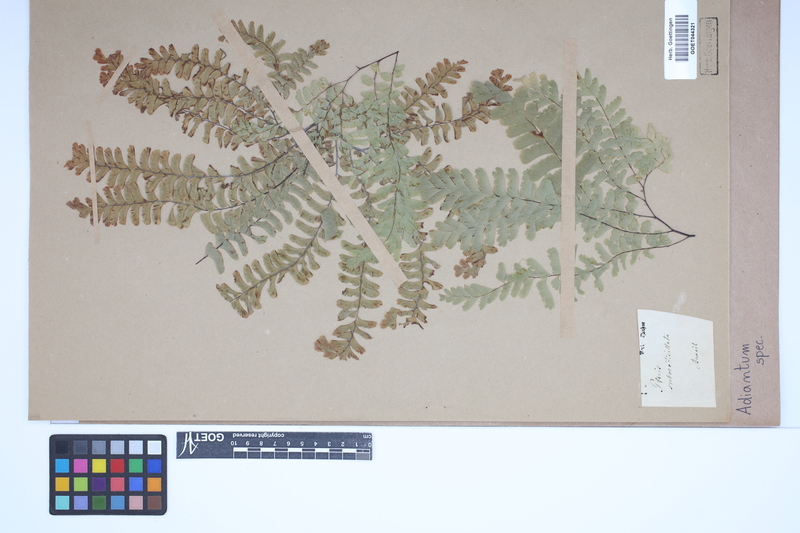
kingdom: Plantae
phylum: Tracheophyta
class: Polypodiopsida
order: Polypodiales
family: Pteridaceae
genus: Adiantum
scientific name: Adiantum
